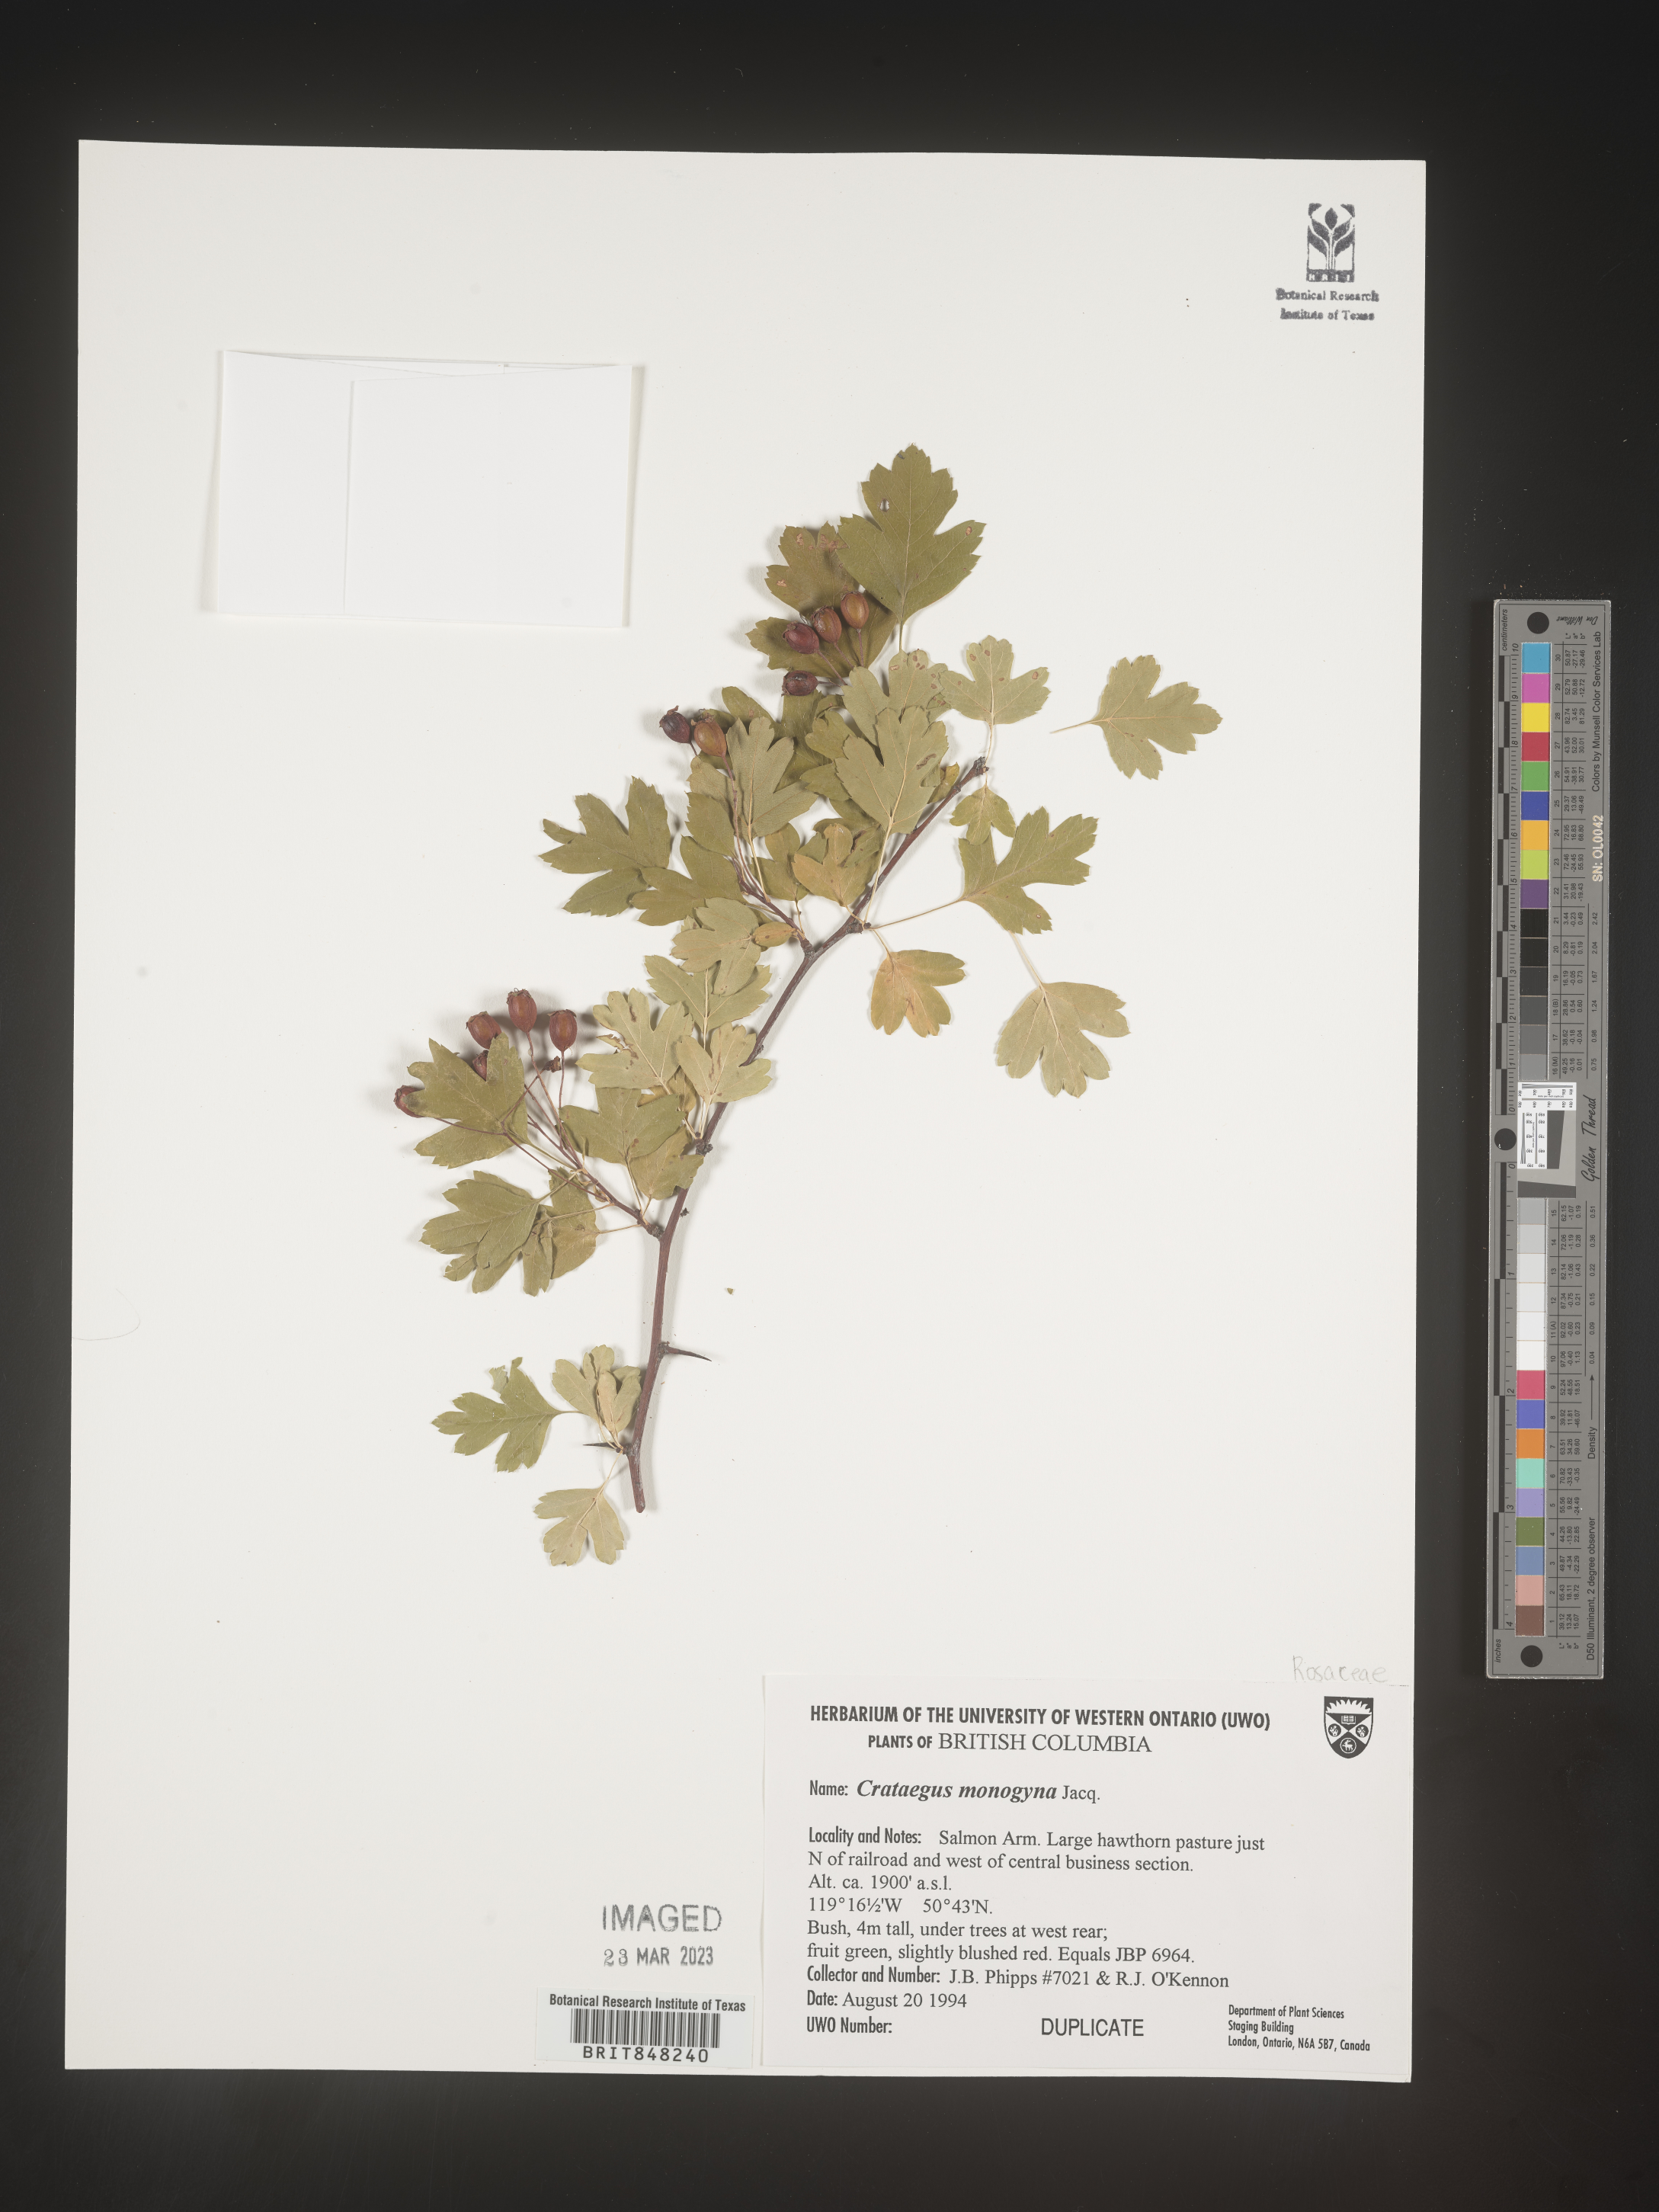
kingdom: Plantae
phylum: Tracheophyta
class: Magnoliopsida
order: Rosales
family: Rosaceae
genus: Crataegus
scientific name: Crataegus monogyna
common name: Hawthorn
